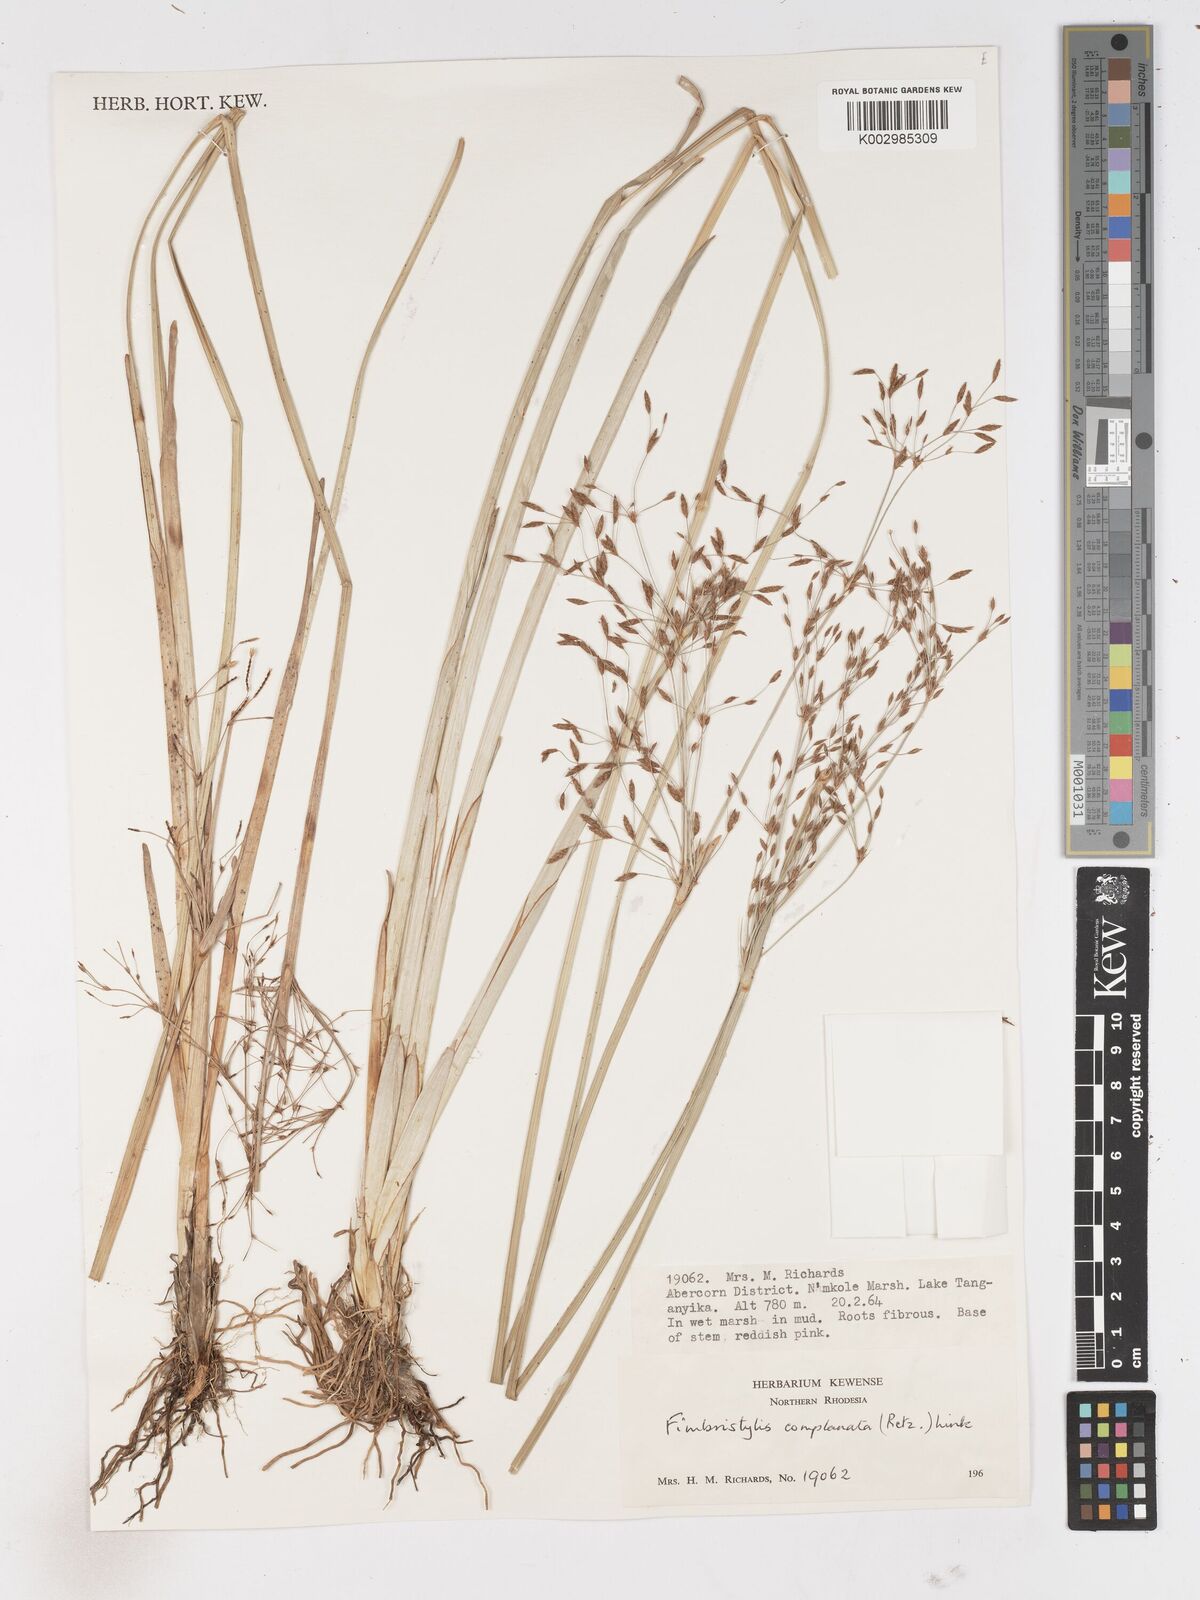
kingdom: Plantae
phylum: Tracheophyta
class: Liliopsida
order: Poales
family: Cyperaceae
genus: Fimbristylis
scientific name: Fimbristylis complanata
